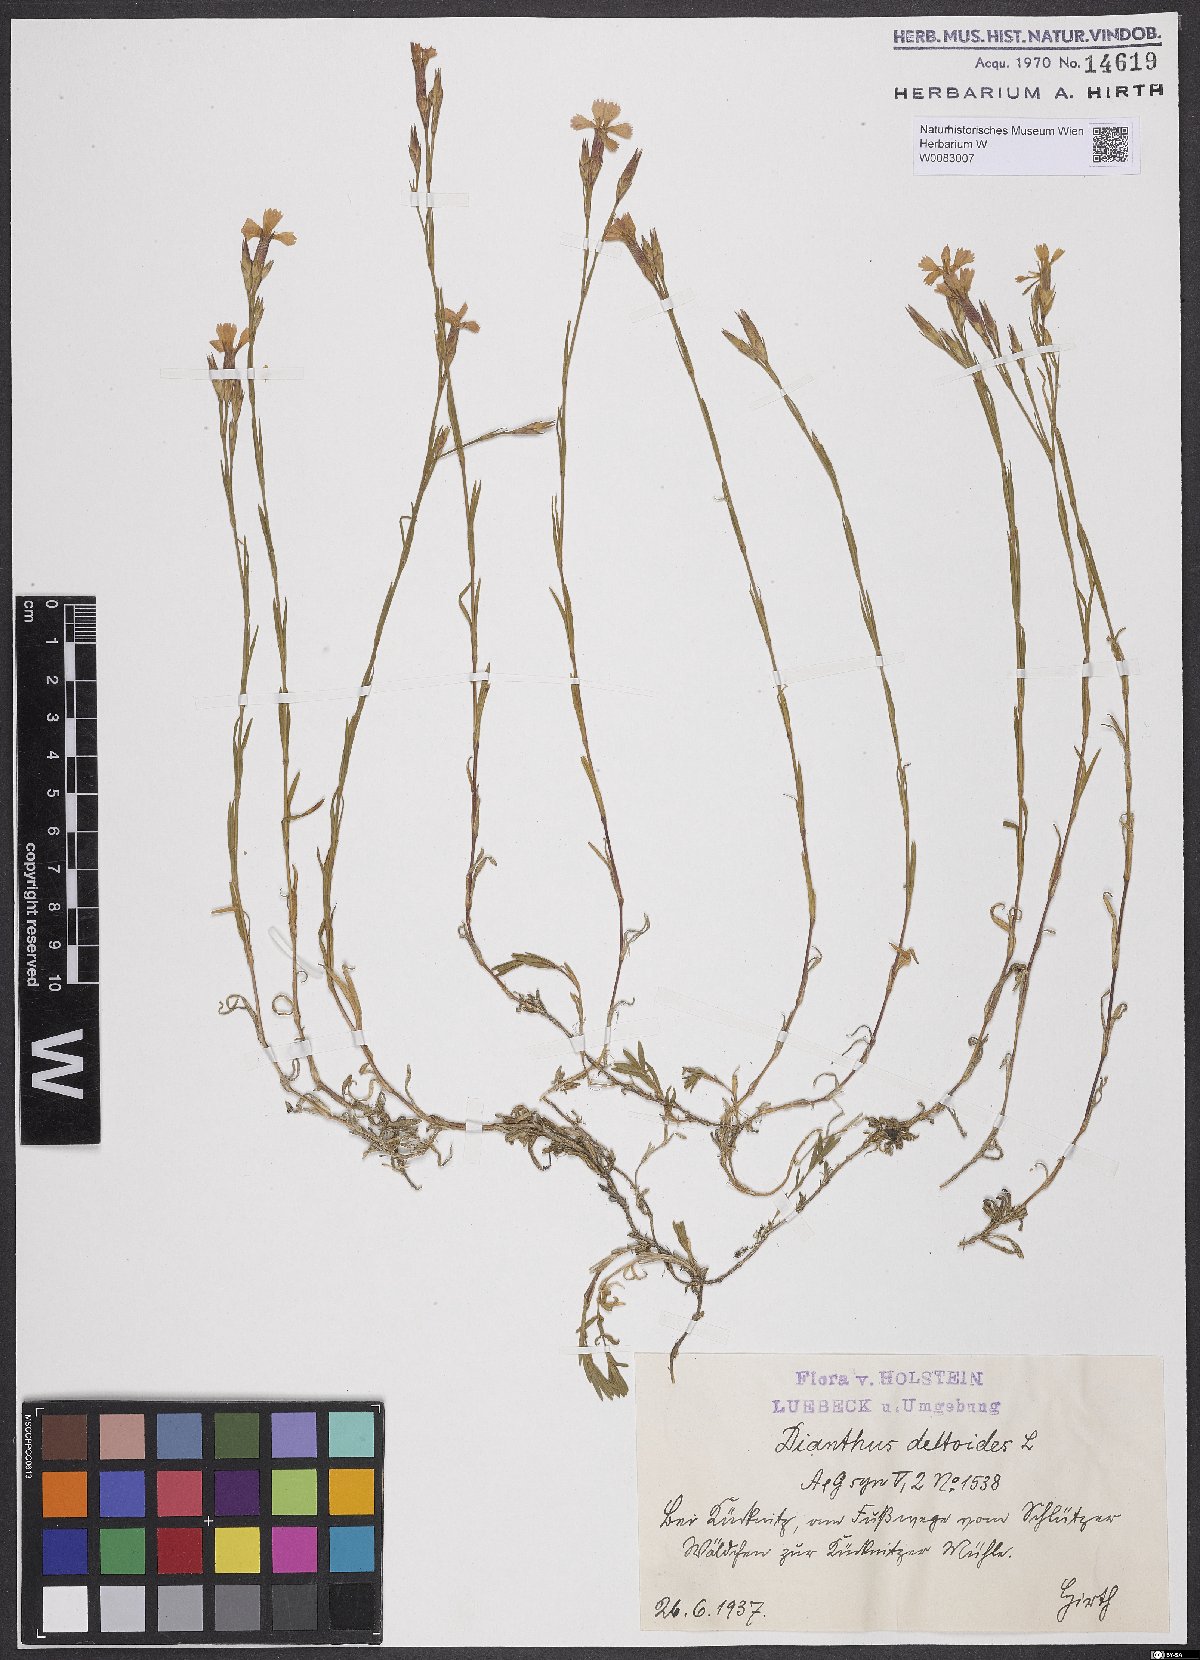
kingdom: Plantae
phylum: Tracheophyta
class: Magnoliopsida
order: Caryophyllales
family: Caryophyllaceae
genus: Dianthus
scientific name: Dianthus deltoides
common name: Maiden pink
